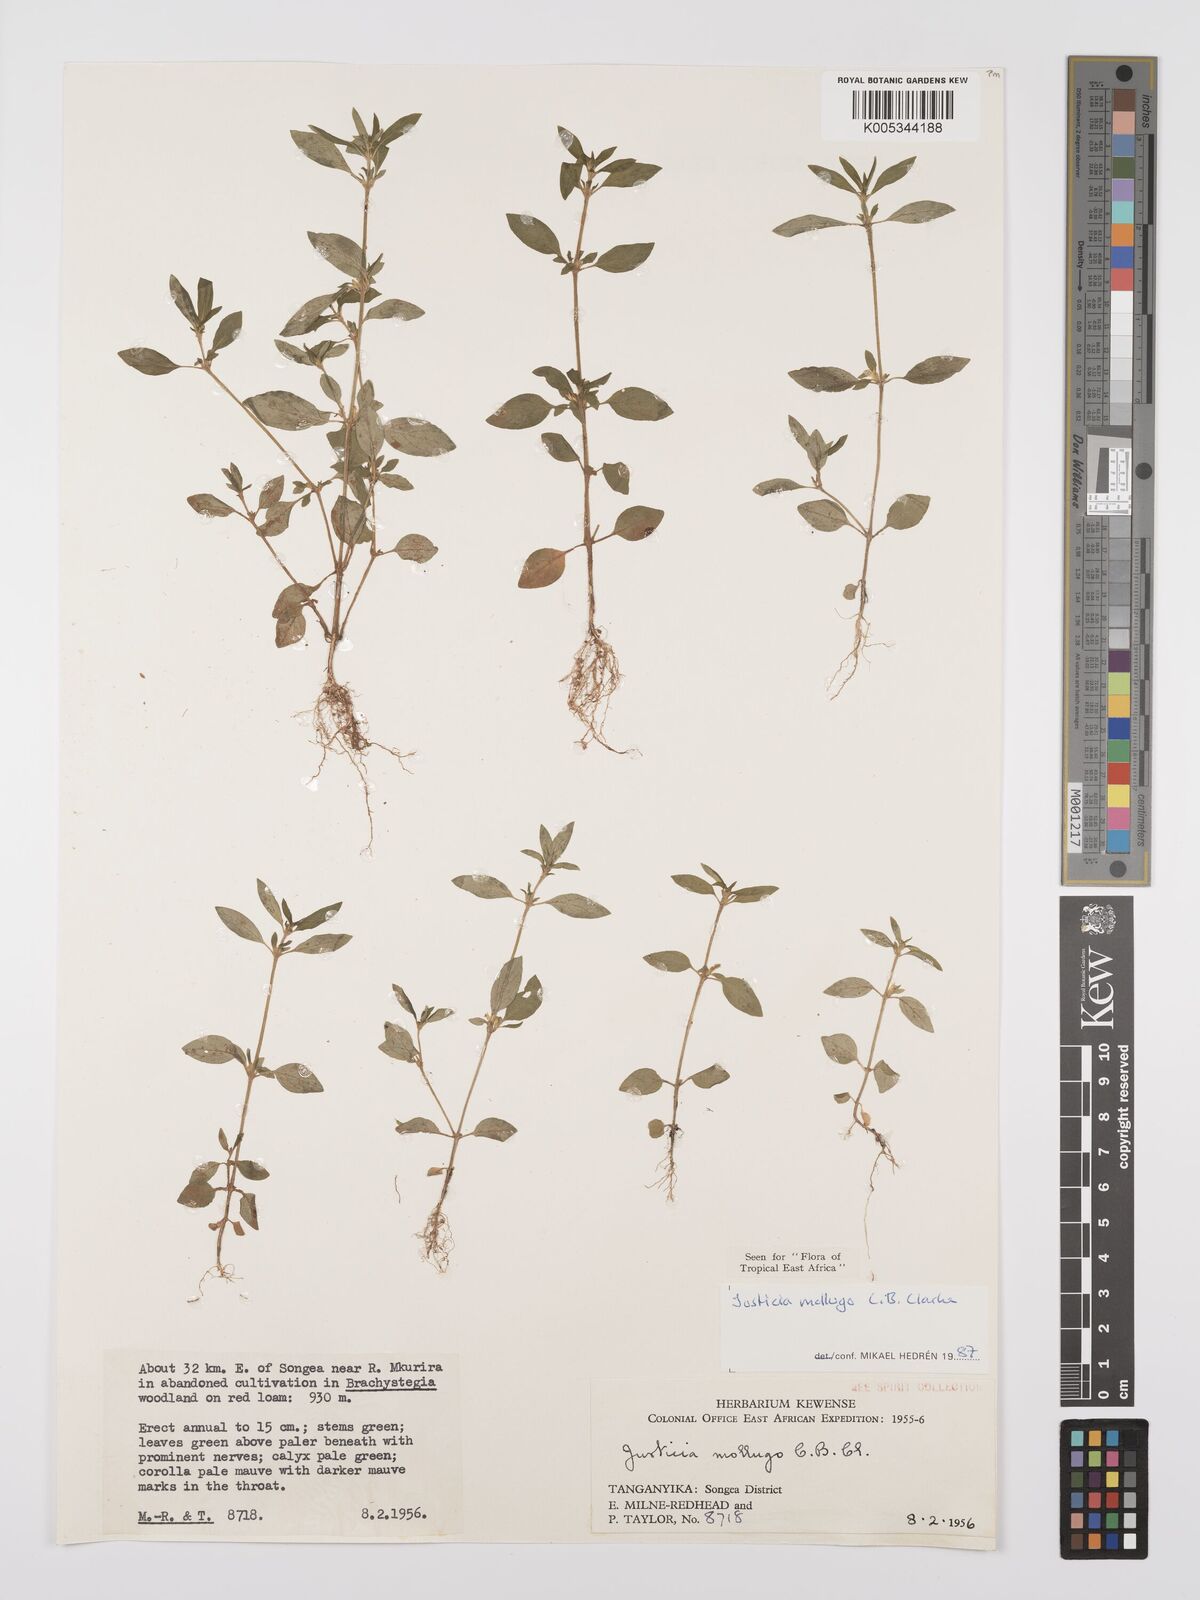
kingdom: Plantae
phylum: Tracheophyta
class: Magnoliopsida
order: Lamiales
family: Acanthaceae
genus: Justicia
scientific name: Justicia mollugo
